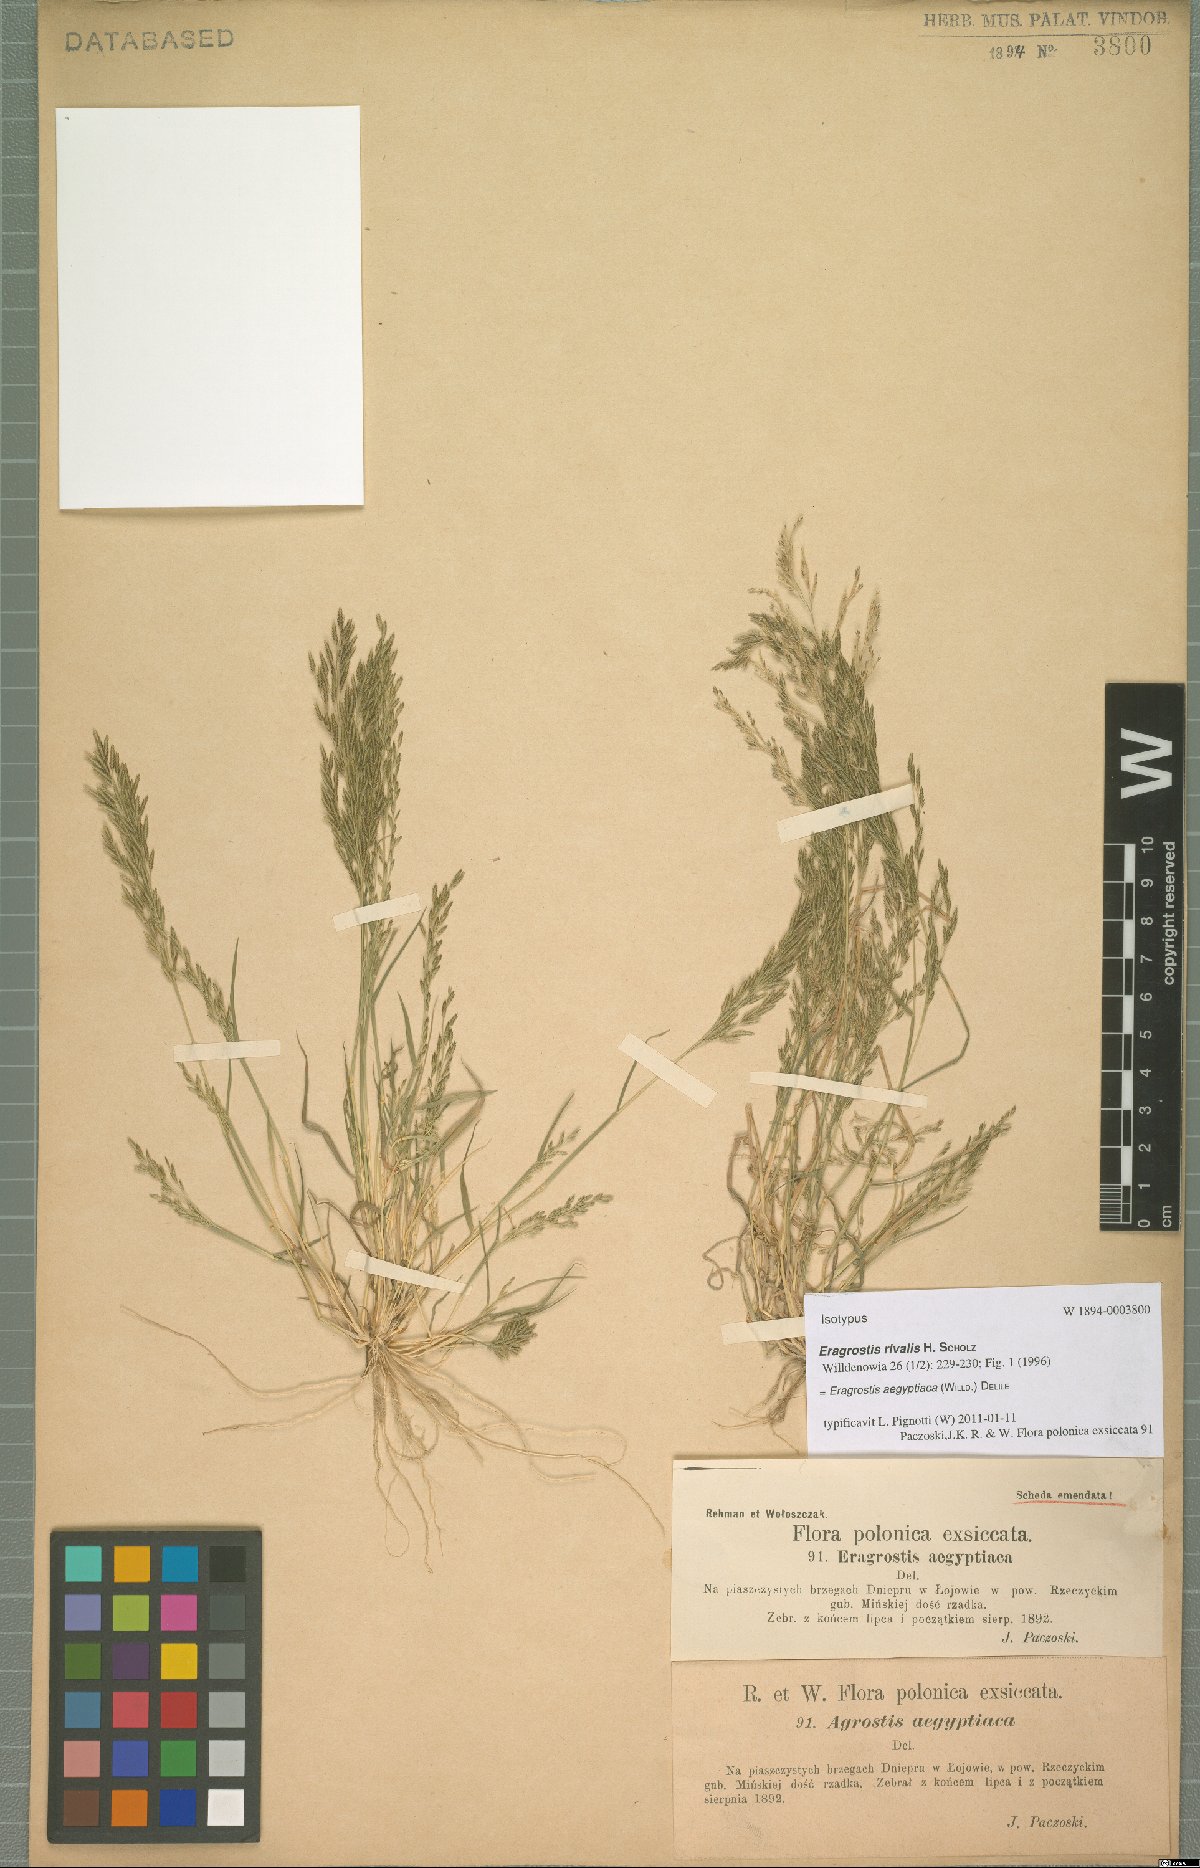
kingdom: Plantae
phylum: Tracheophyta
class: Liliopsida
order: Poales
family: Poaceae
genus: Eragrostis
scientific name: Eragrostis aegyptiaca
